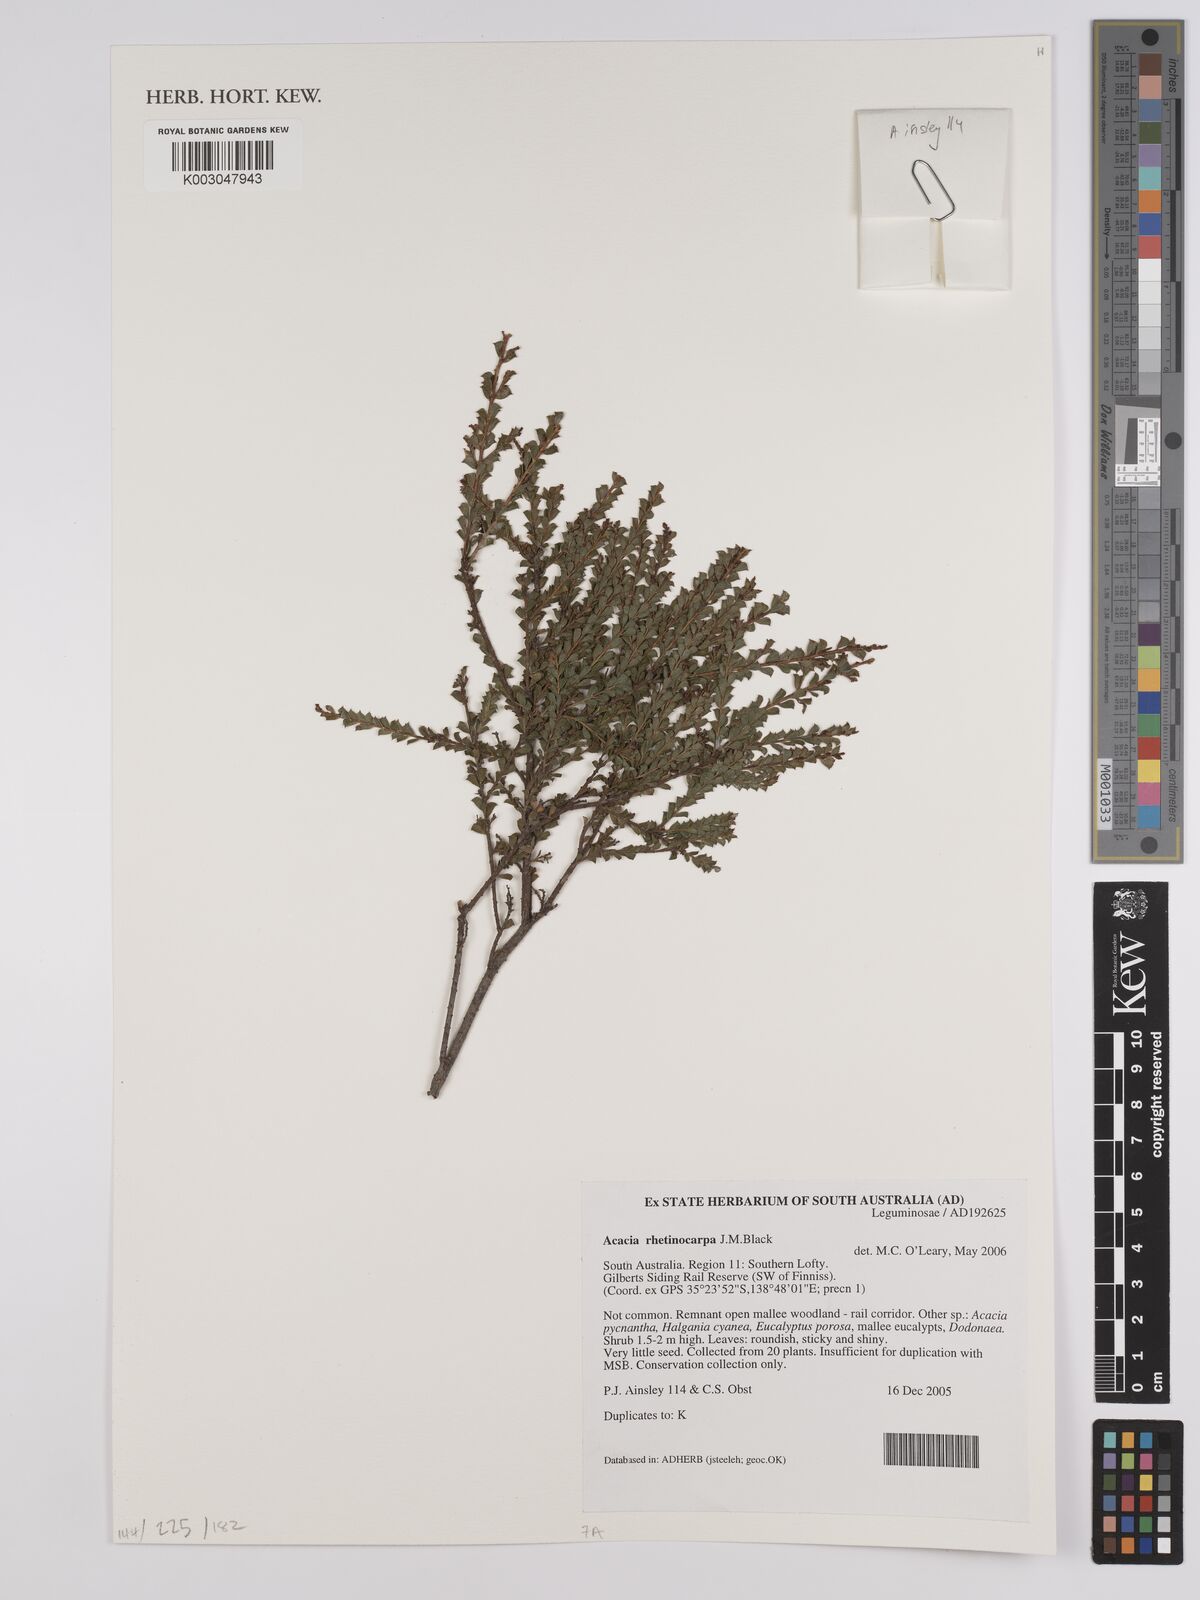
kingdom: Plantae
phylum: Tracheophyta
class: Magnoliopsida
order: Fabales
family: Fabaceae
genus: Acacia
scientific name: Acacia brachyclada
